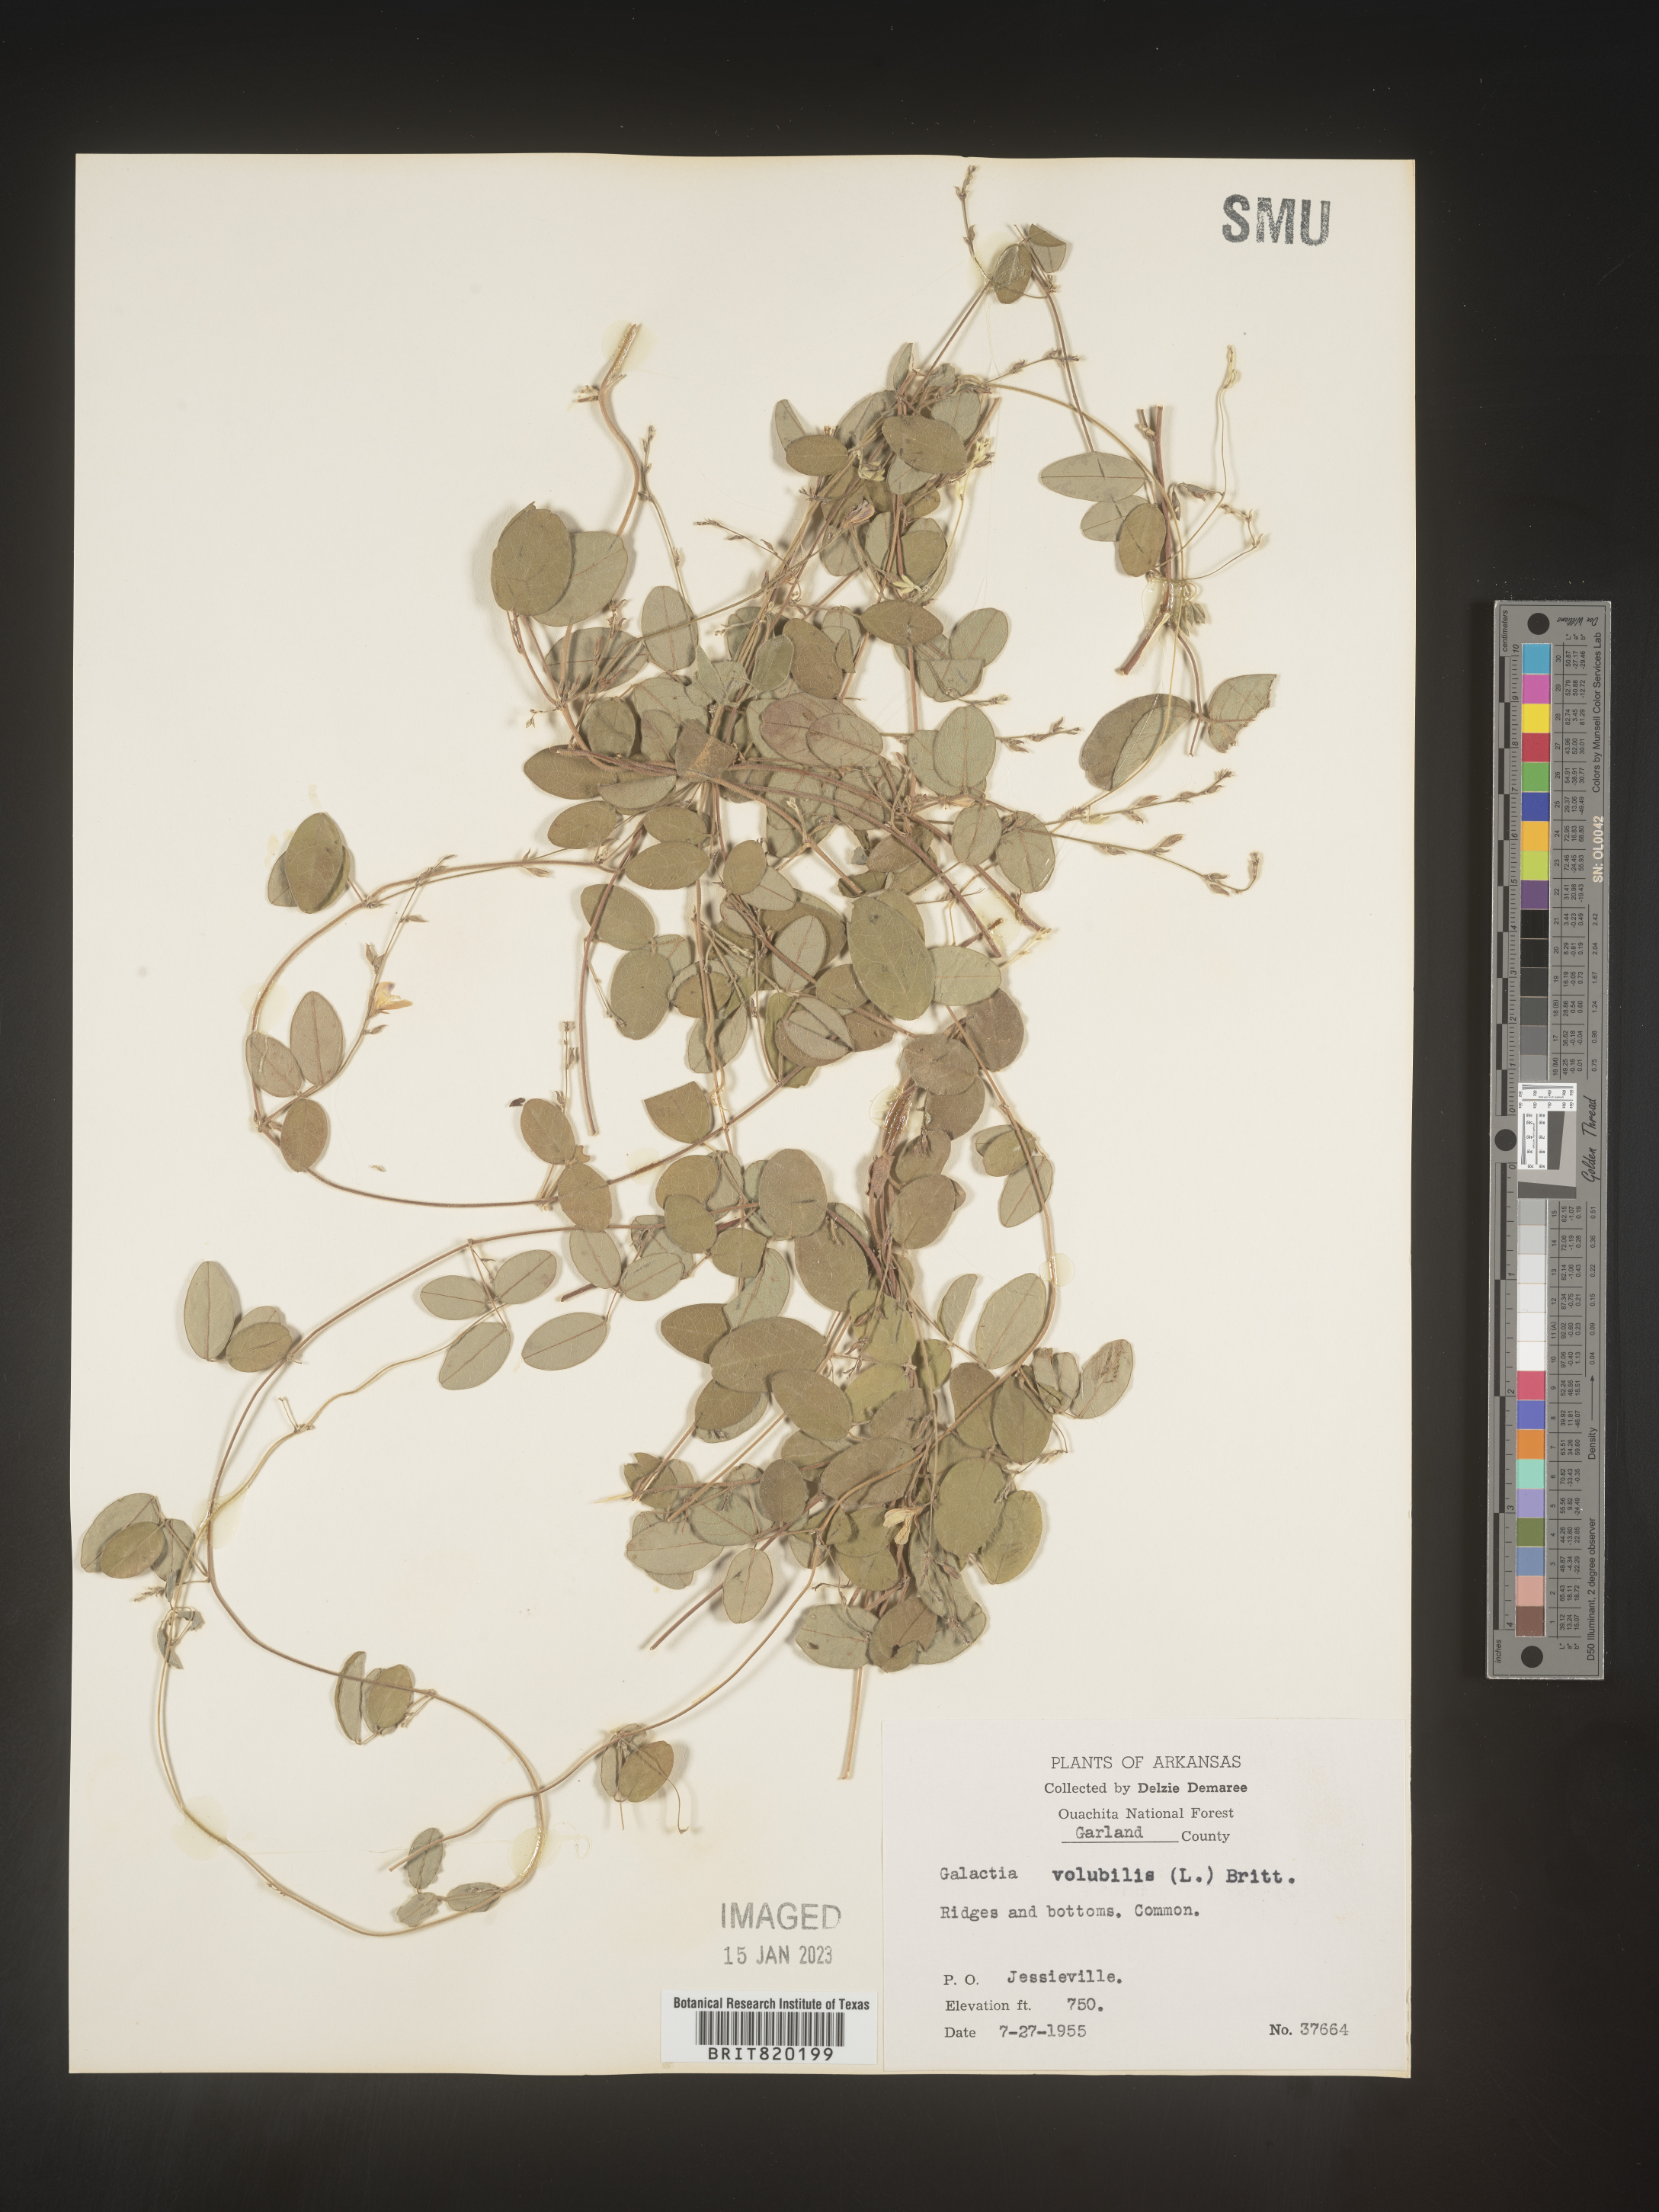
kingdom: Plantae
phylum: Tracheophyta
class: Magnoliopsida
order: Fabales
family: Fabaceae
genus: Galactia
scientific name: Galactia volubilis
